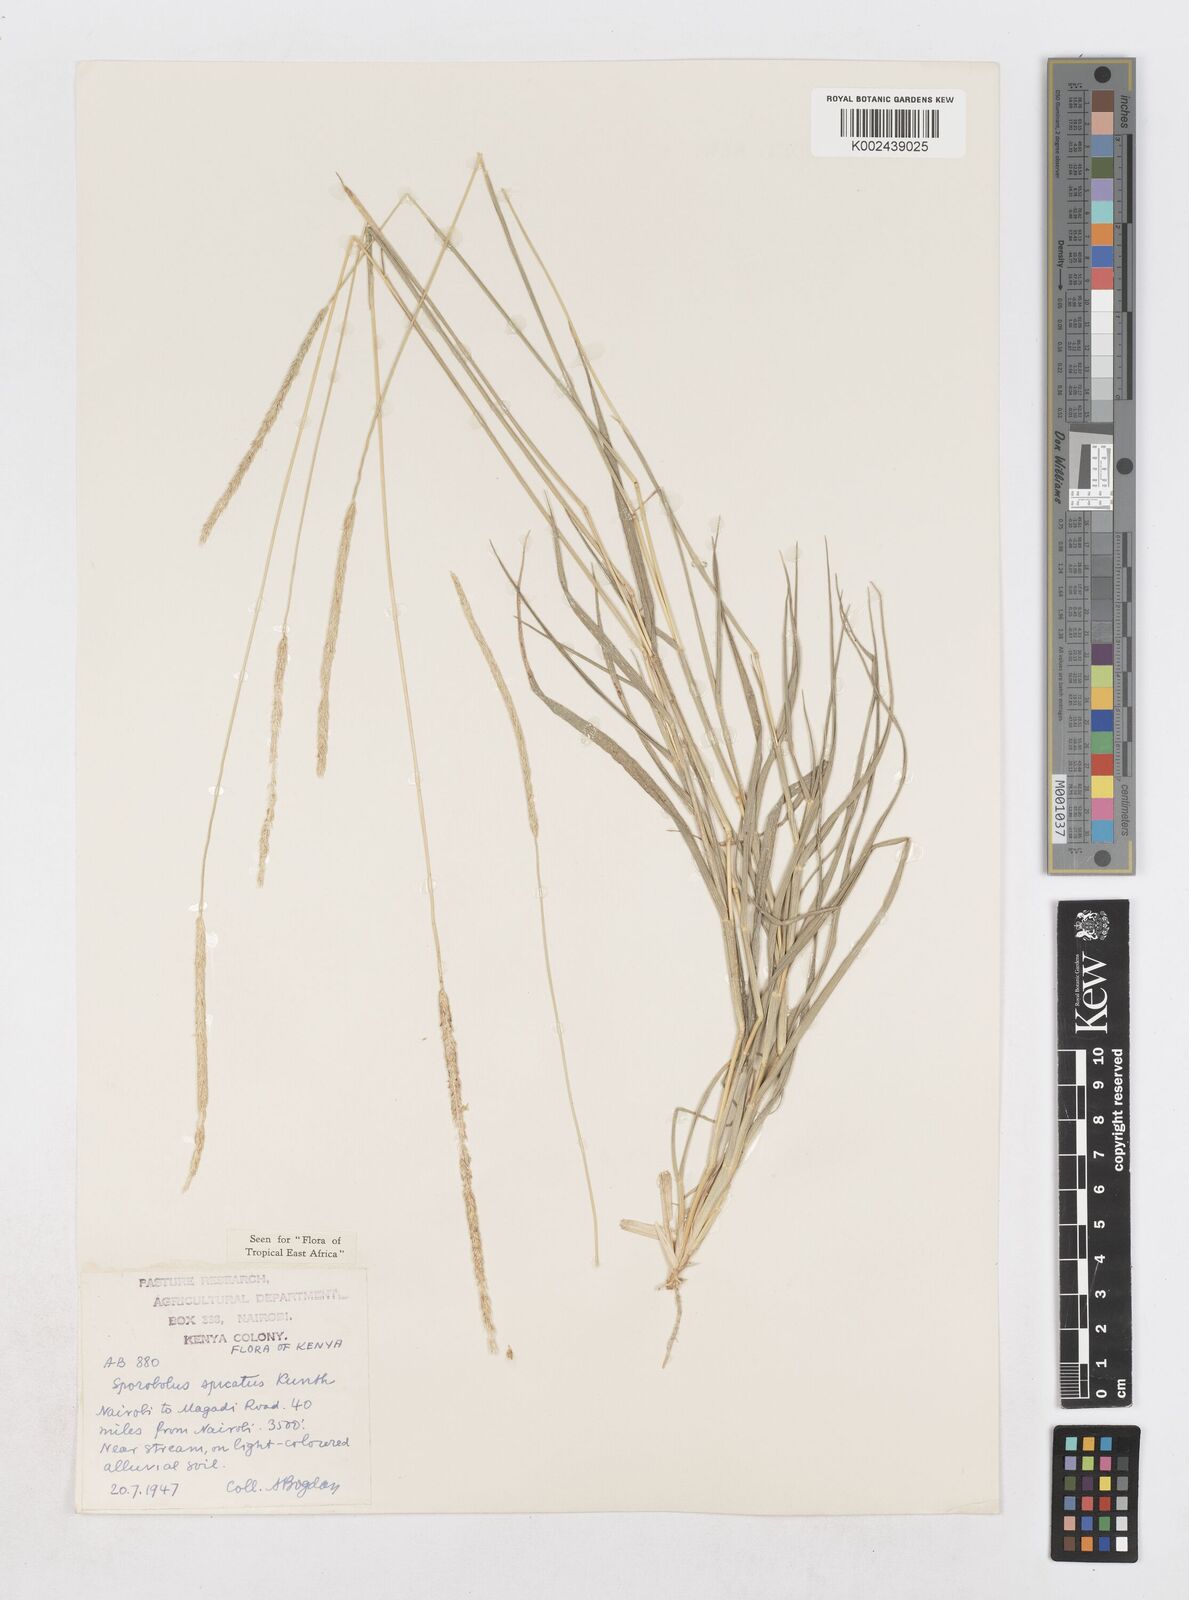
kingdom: Plantae
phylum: Tracheophyta
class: Liliopsida
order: Poales
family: Poaceae
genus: Sporobolus
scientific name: Sporobolus spicatus
